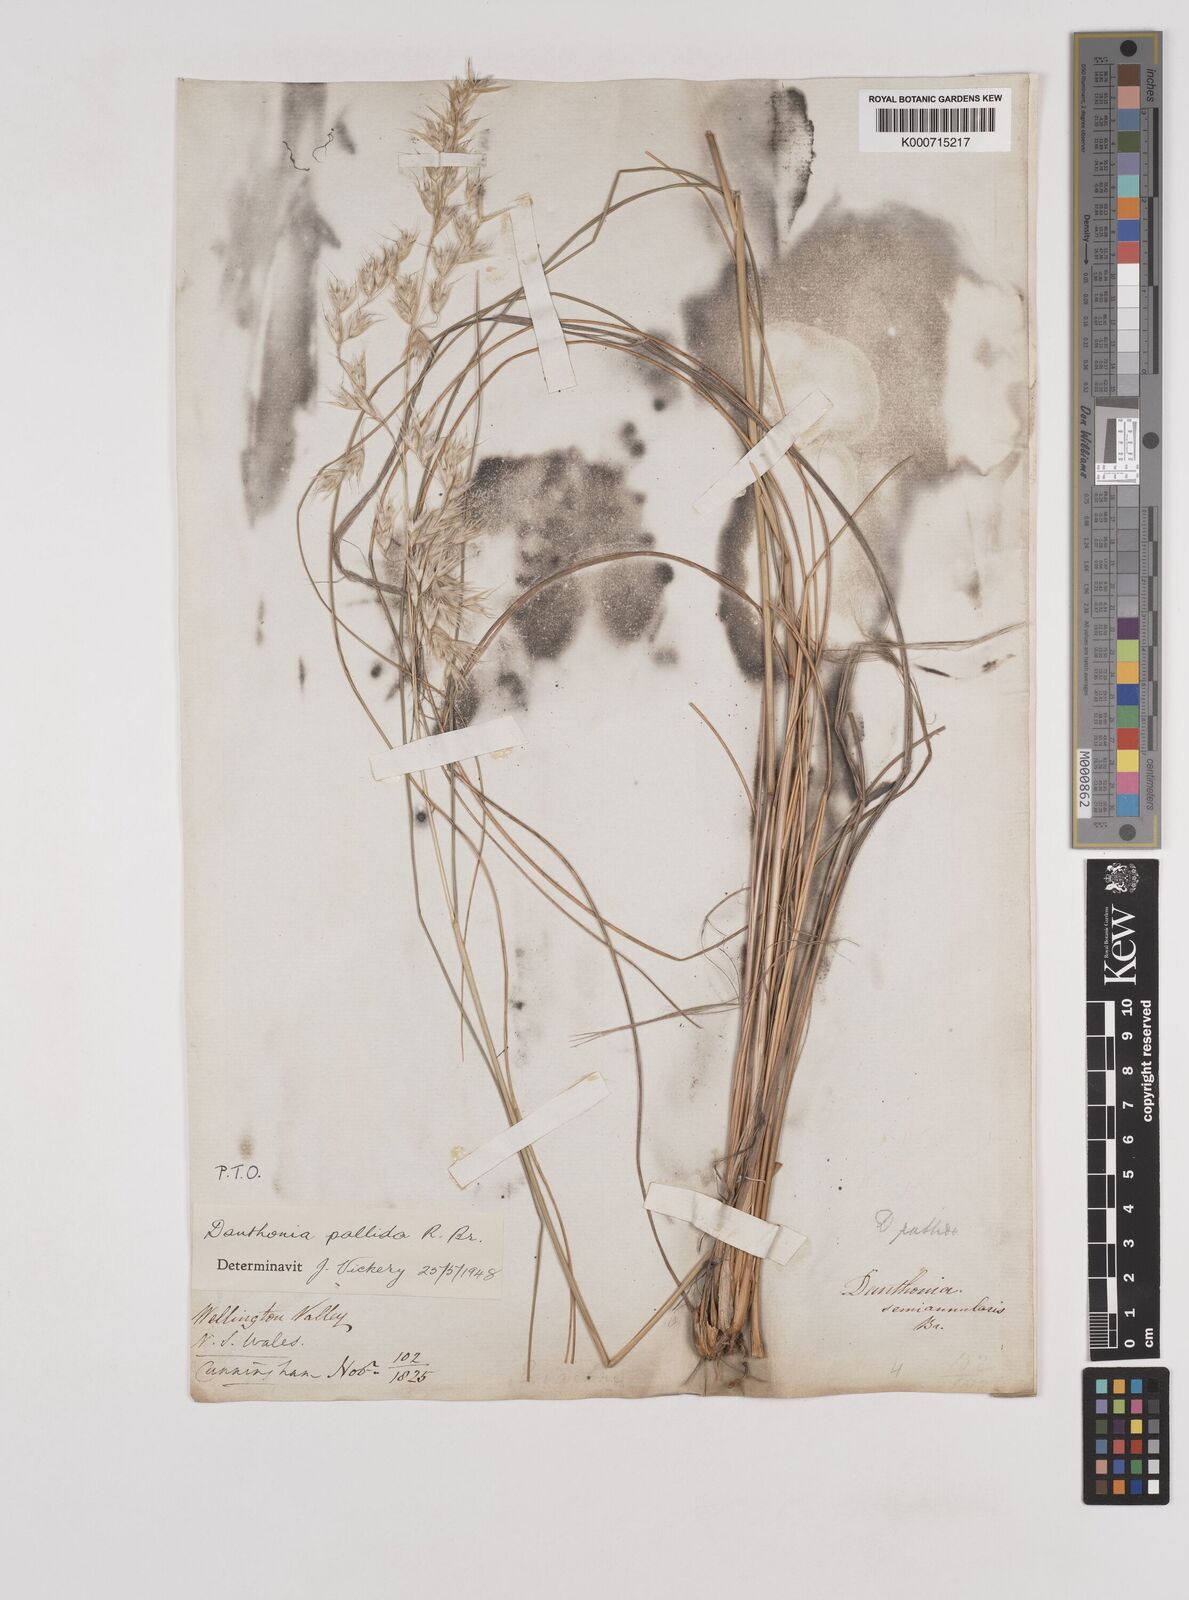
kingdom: Plantae
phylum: Tracheophyta
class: Liliopsida
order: Poales
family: Poaceae
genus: Rytidosperma
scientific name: Rytidosperma
